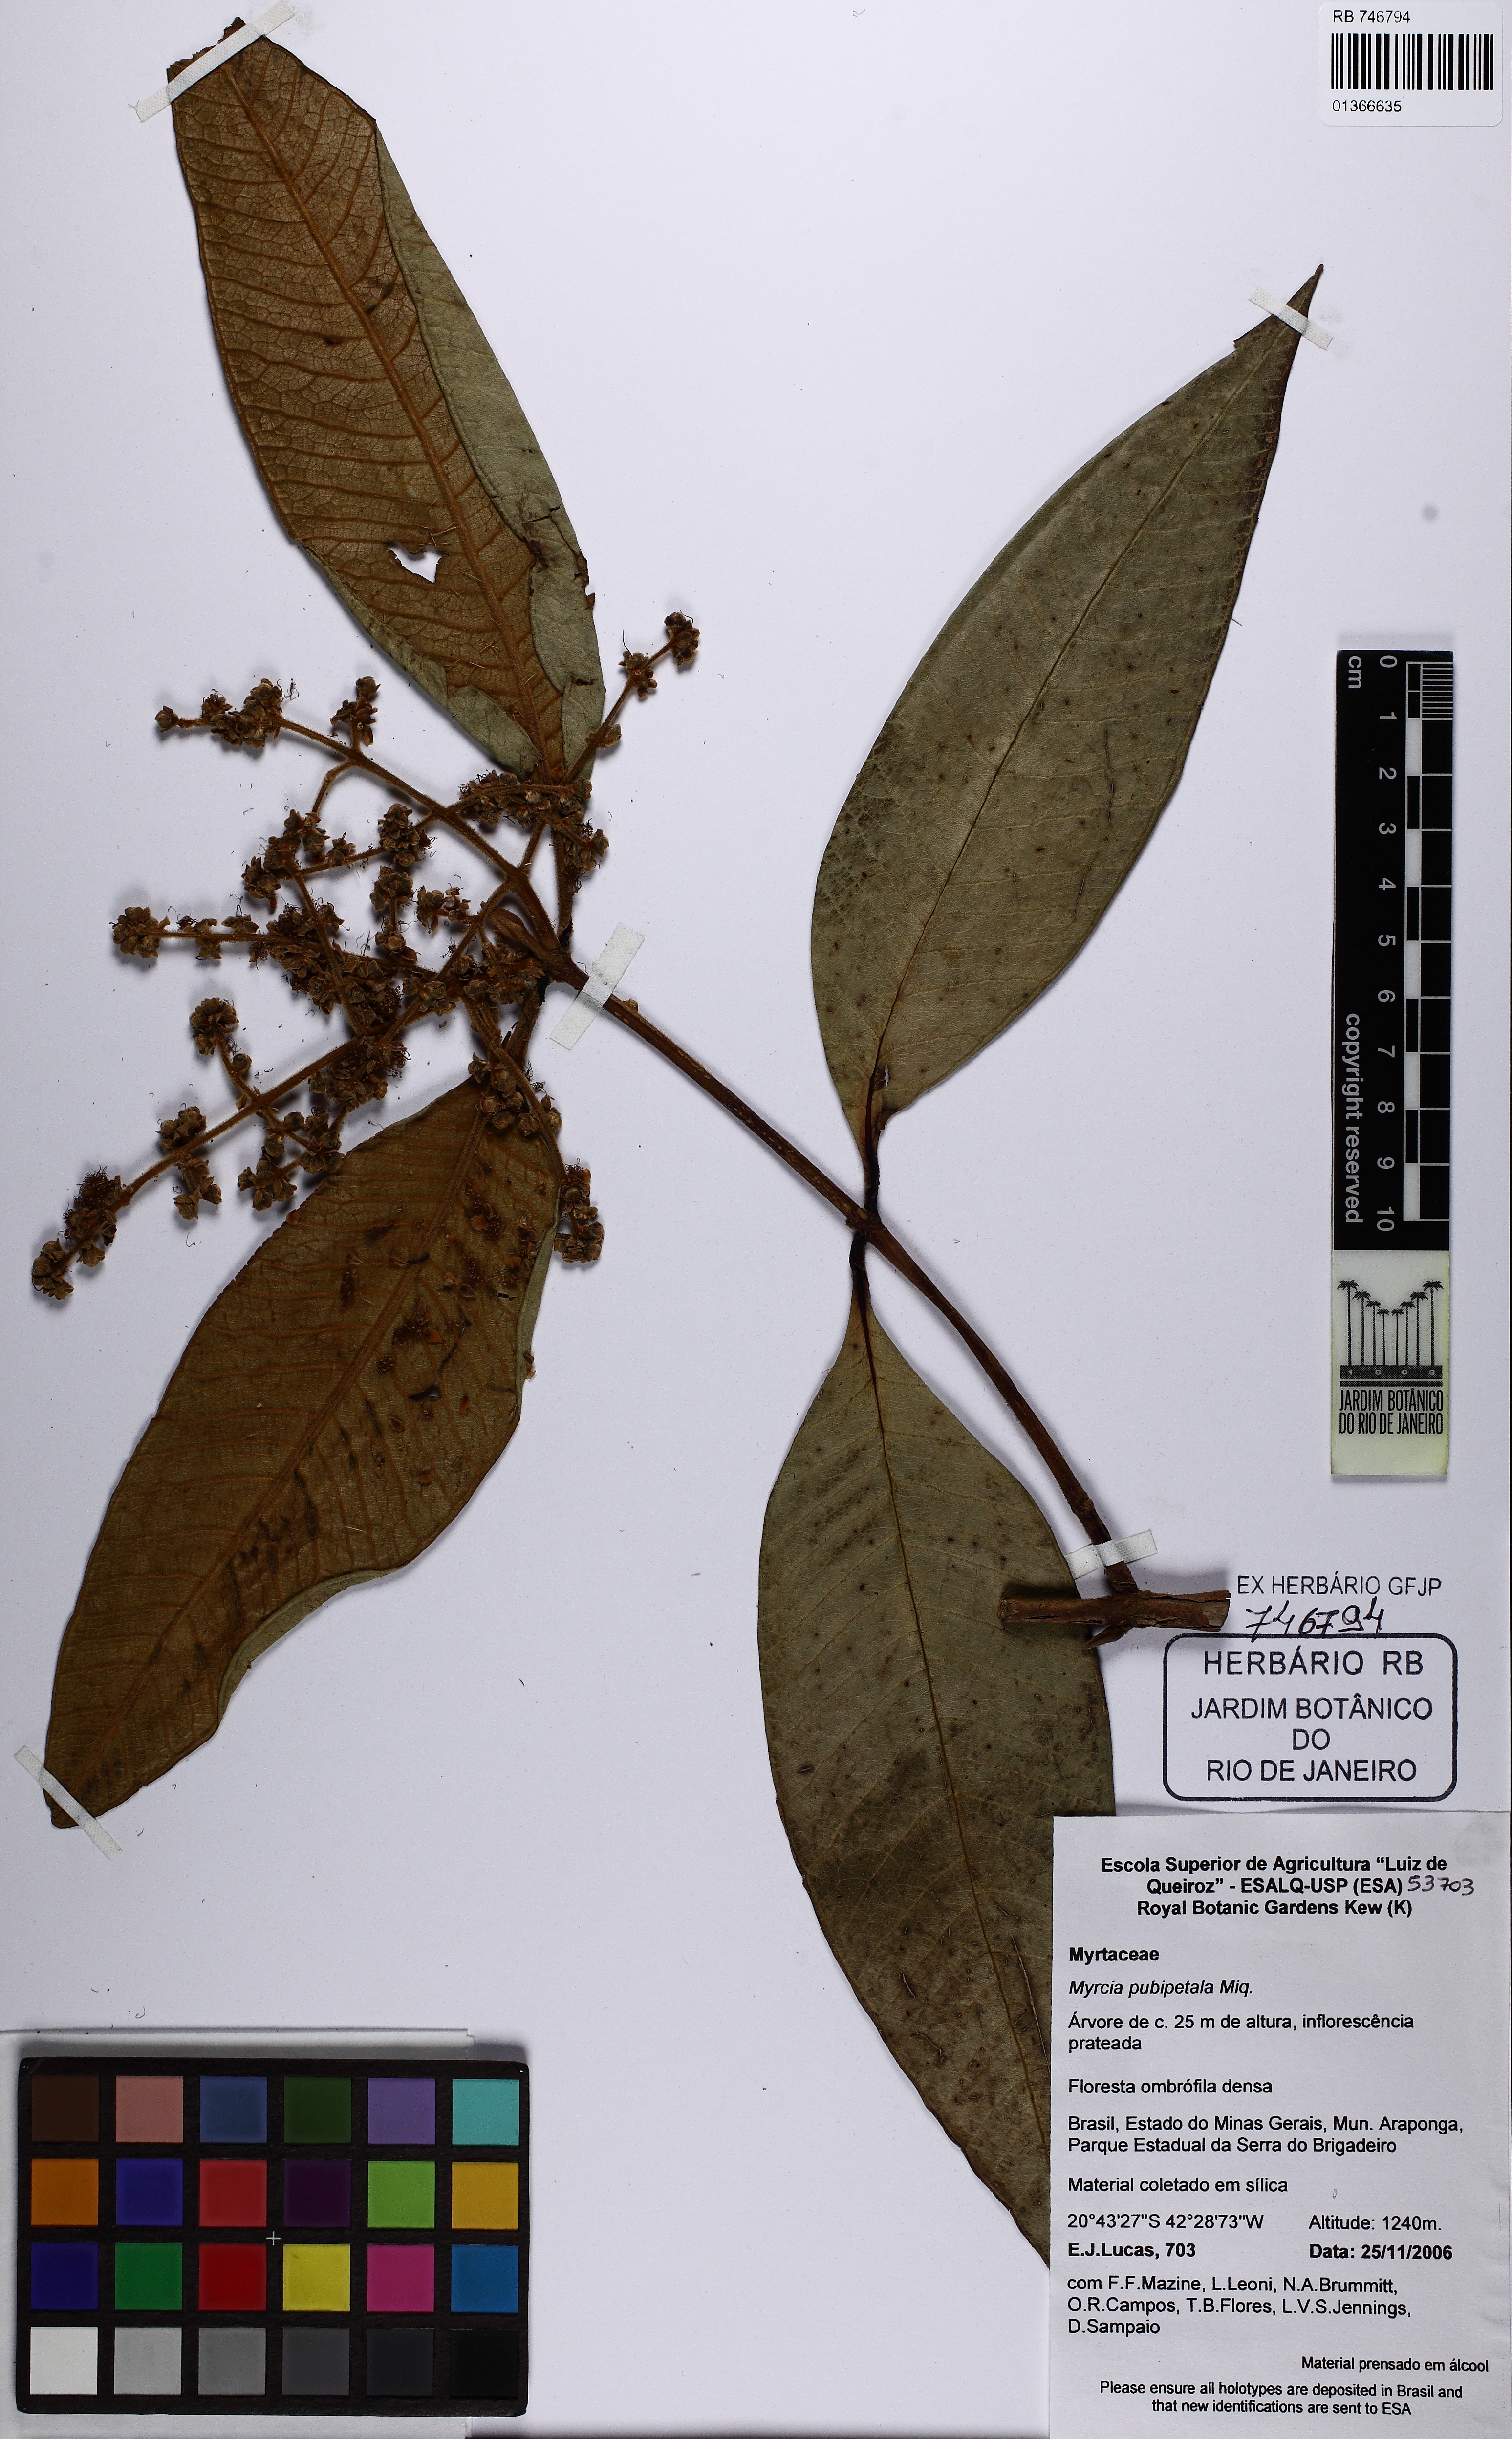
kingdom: Plantae
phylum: Tracheophyta
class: Magnoliopsida
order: Myrtales
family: Myrtaceae
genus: Myrcia
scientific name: Myrcia
